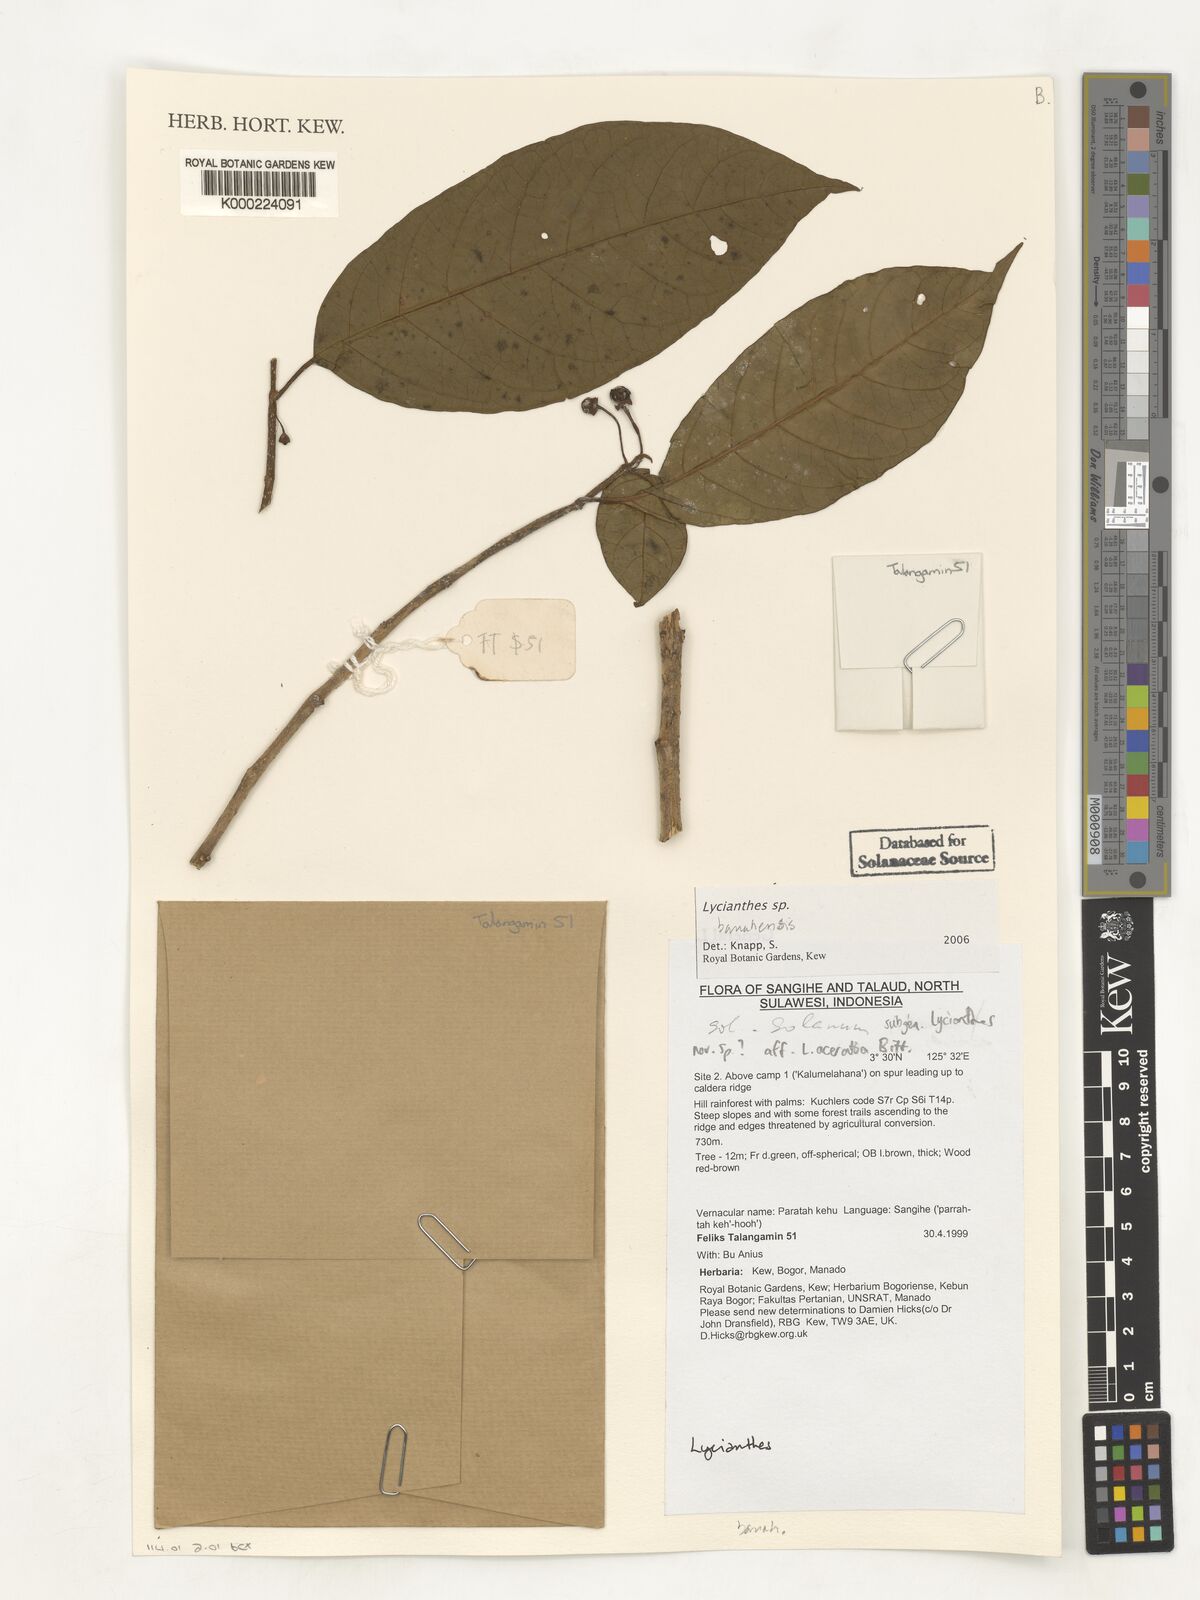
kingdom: Plantae
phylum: Tracheophyta
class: Magnoliopsida
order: Solanales
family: Solanaceae
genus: Lycianthes
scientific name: Lycianthes
